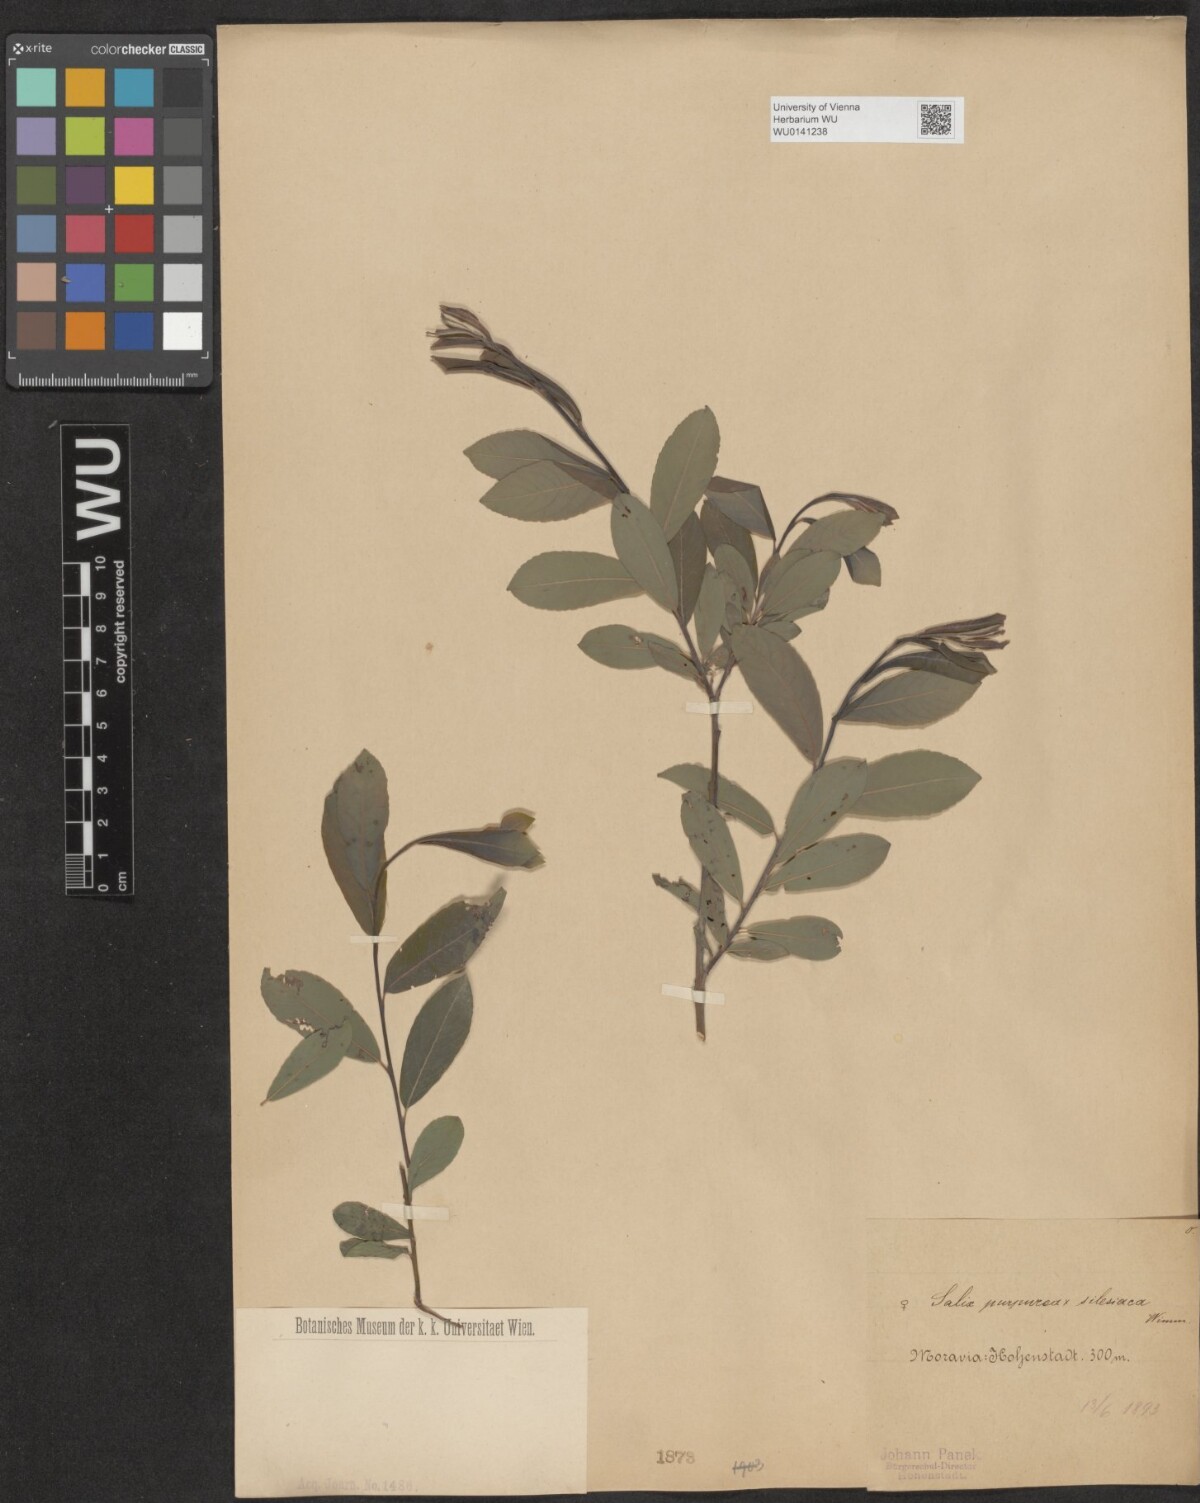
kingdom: Plantae
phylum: Tracheophyta
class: Magnoliopsida
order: Malpighiales
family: Salicaceae
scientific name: Salicaceae
